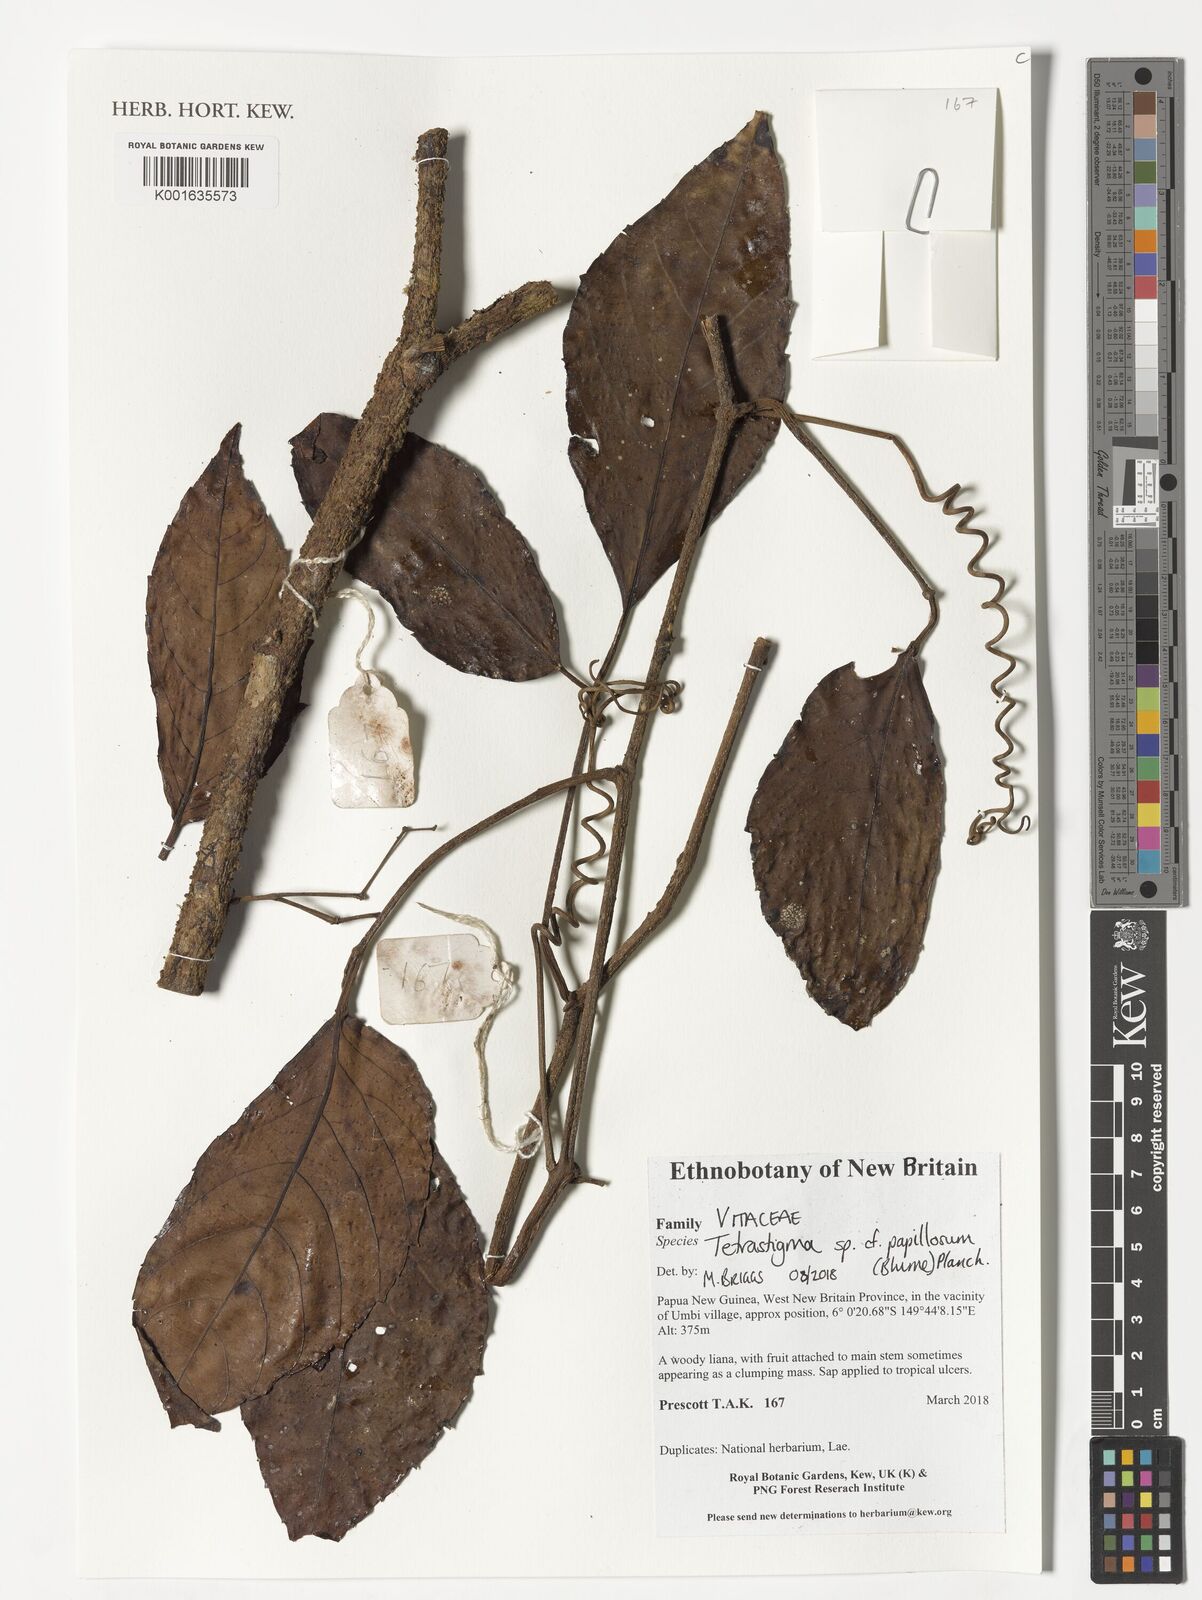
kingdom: Plantae
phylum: Tracheophyta
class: Magnoliopsida
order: Vitales
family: Vitaceae
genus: Tetrastigma
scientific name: Tetrastigma papillosum
